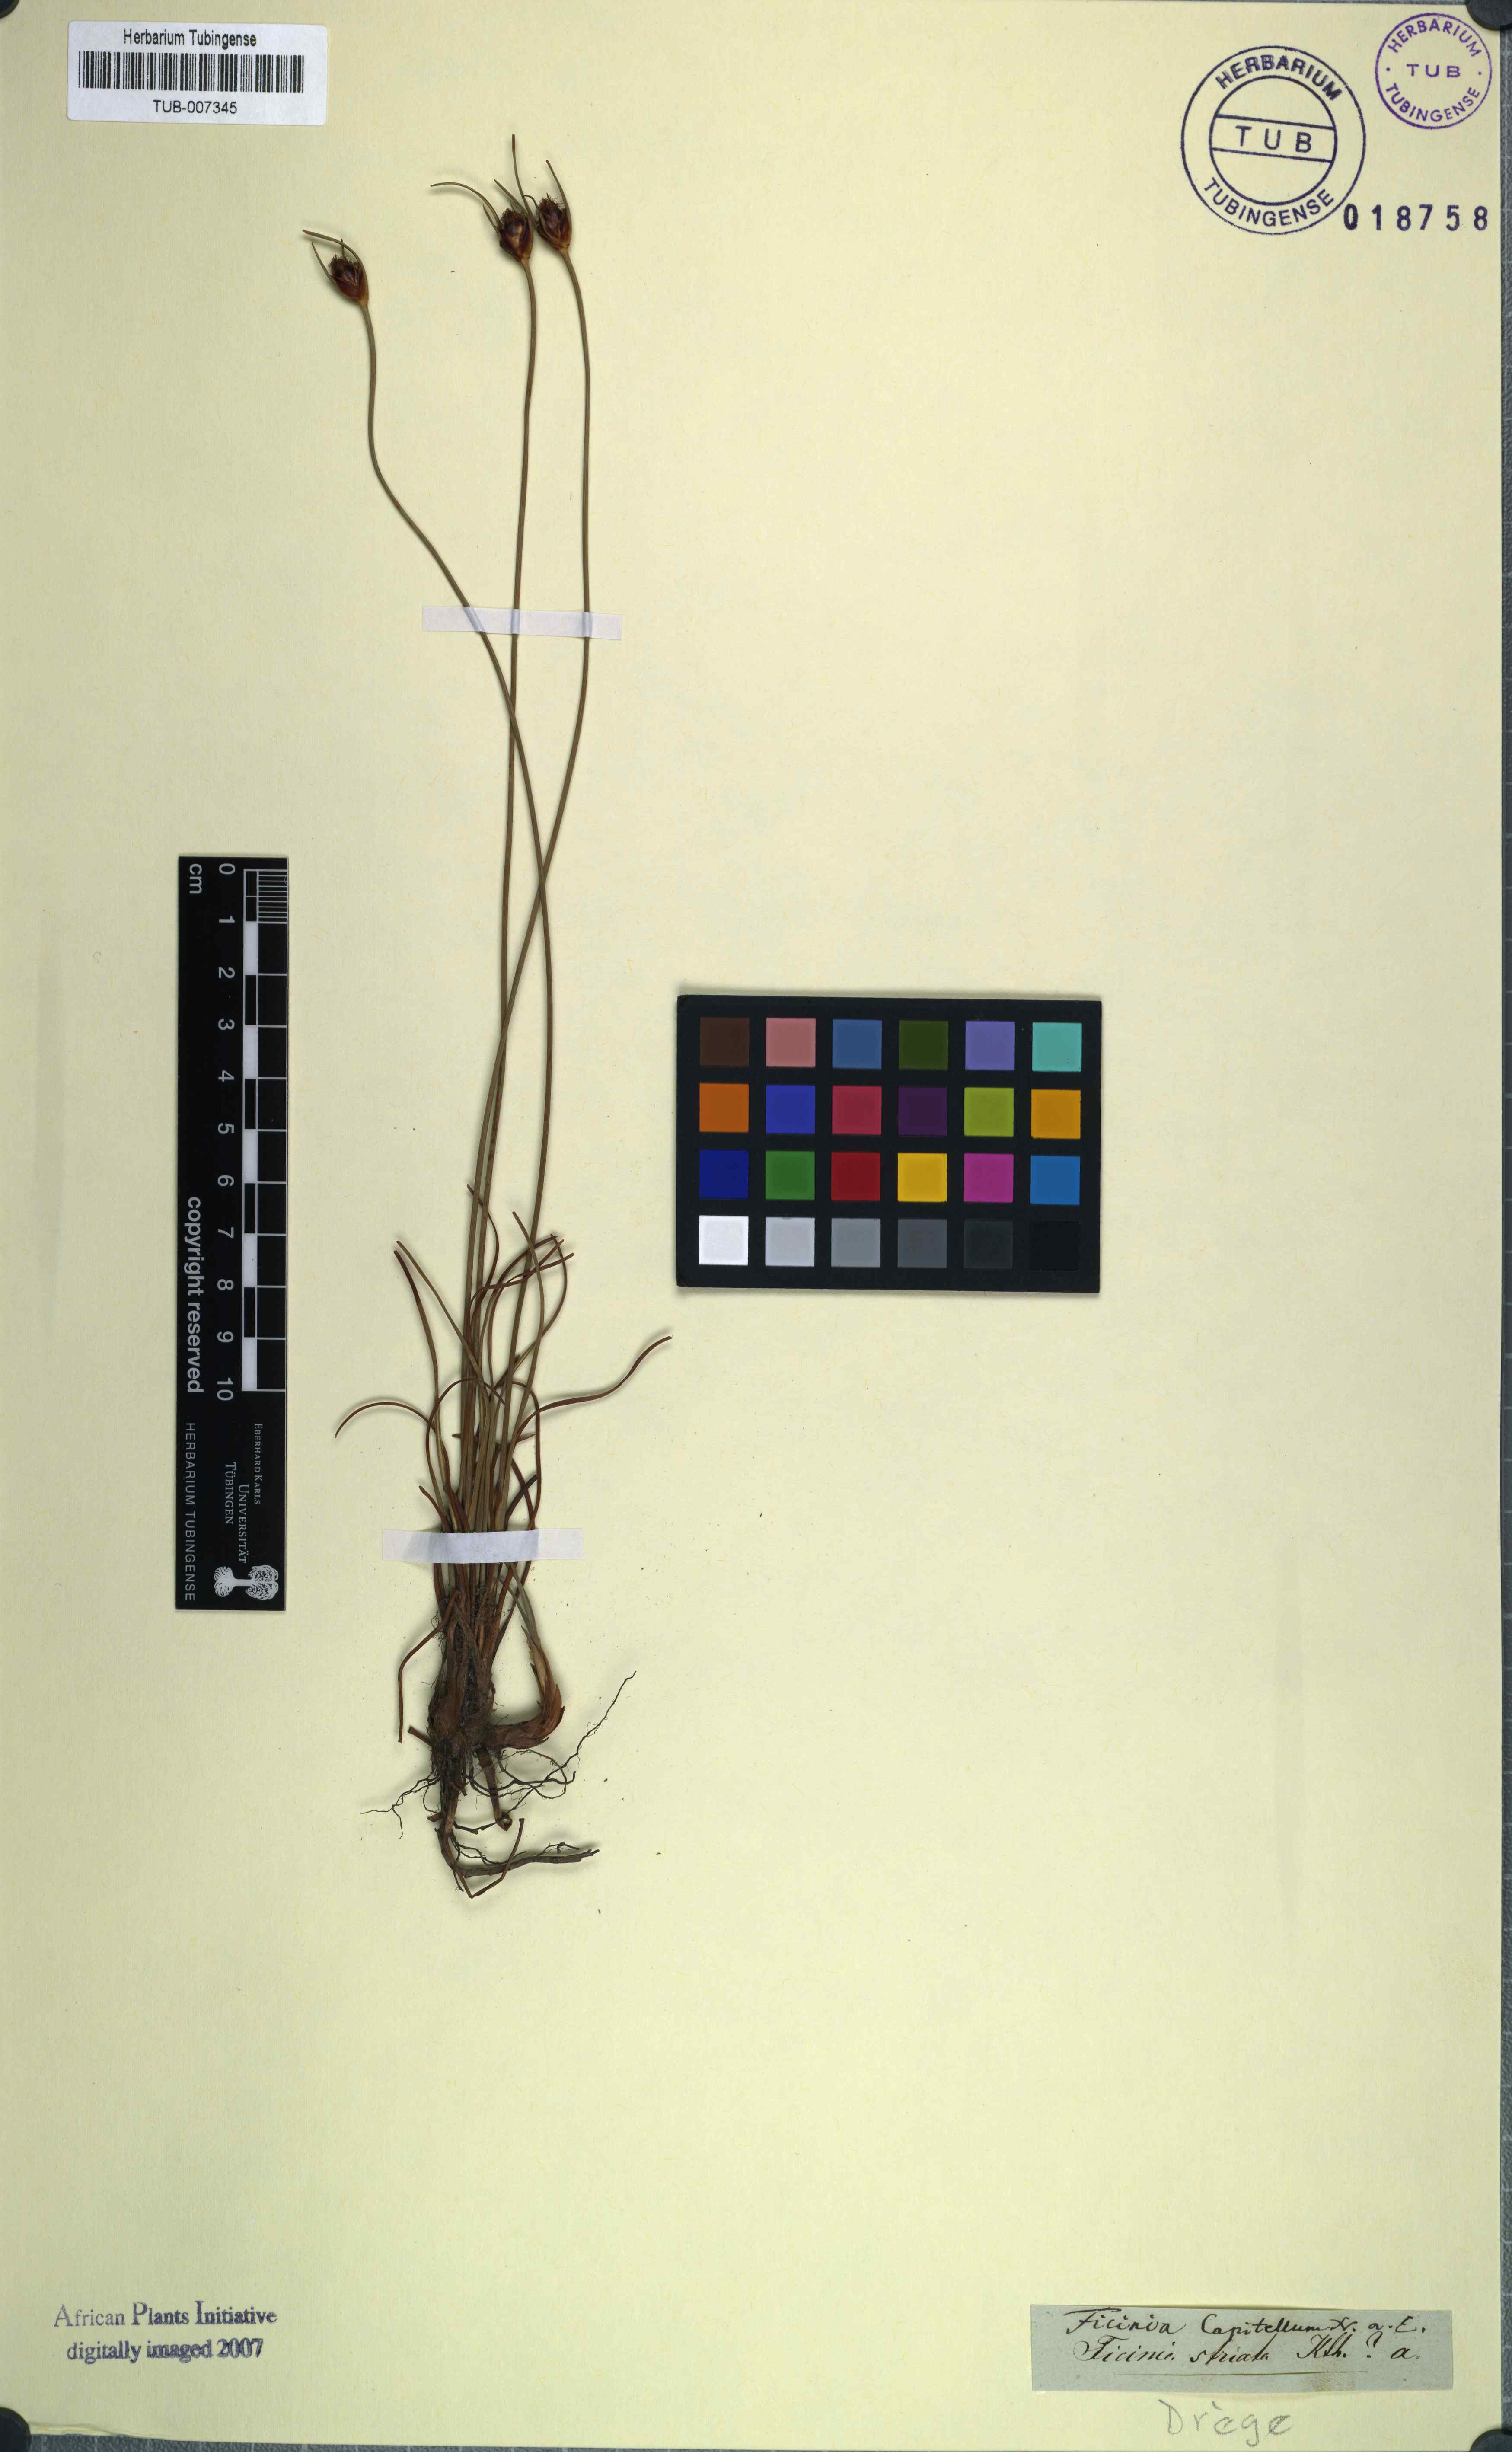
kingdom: Plantae
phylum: Tracheophyta
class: Liliopsida
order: Poales
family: Cyperaceae
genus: Ficinia
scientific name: Ficinia capitella
